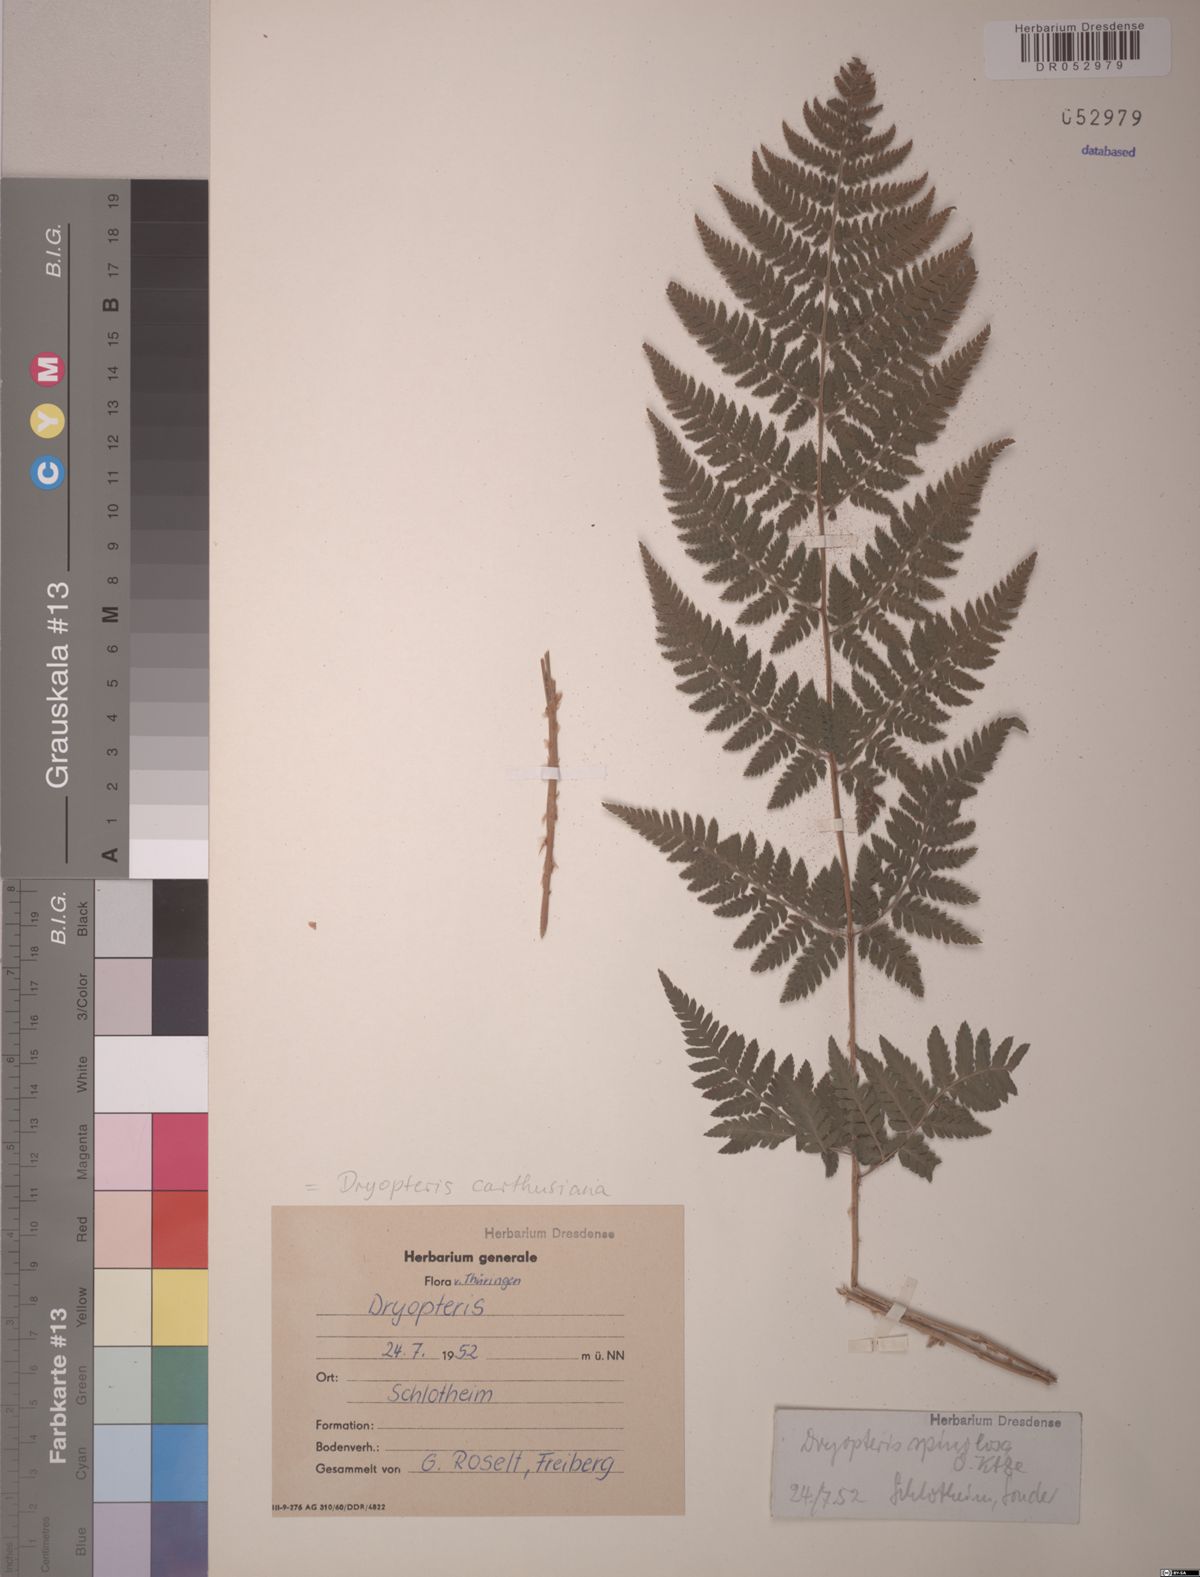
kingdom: Plantae
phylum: Tracheophyta
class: Polypodiopsida
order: Polypodiales
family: Dryopteridaceae
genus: Dryopteris
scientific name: Dryopteris carthusiana
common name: Narrow buckler-fern
